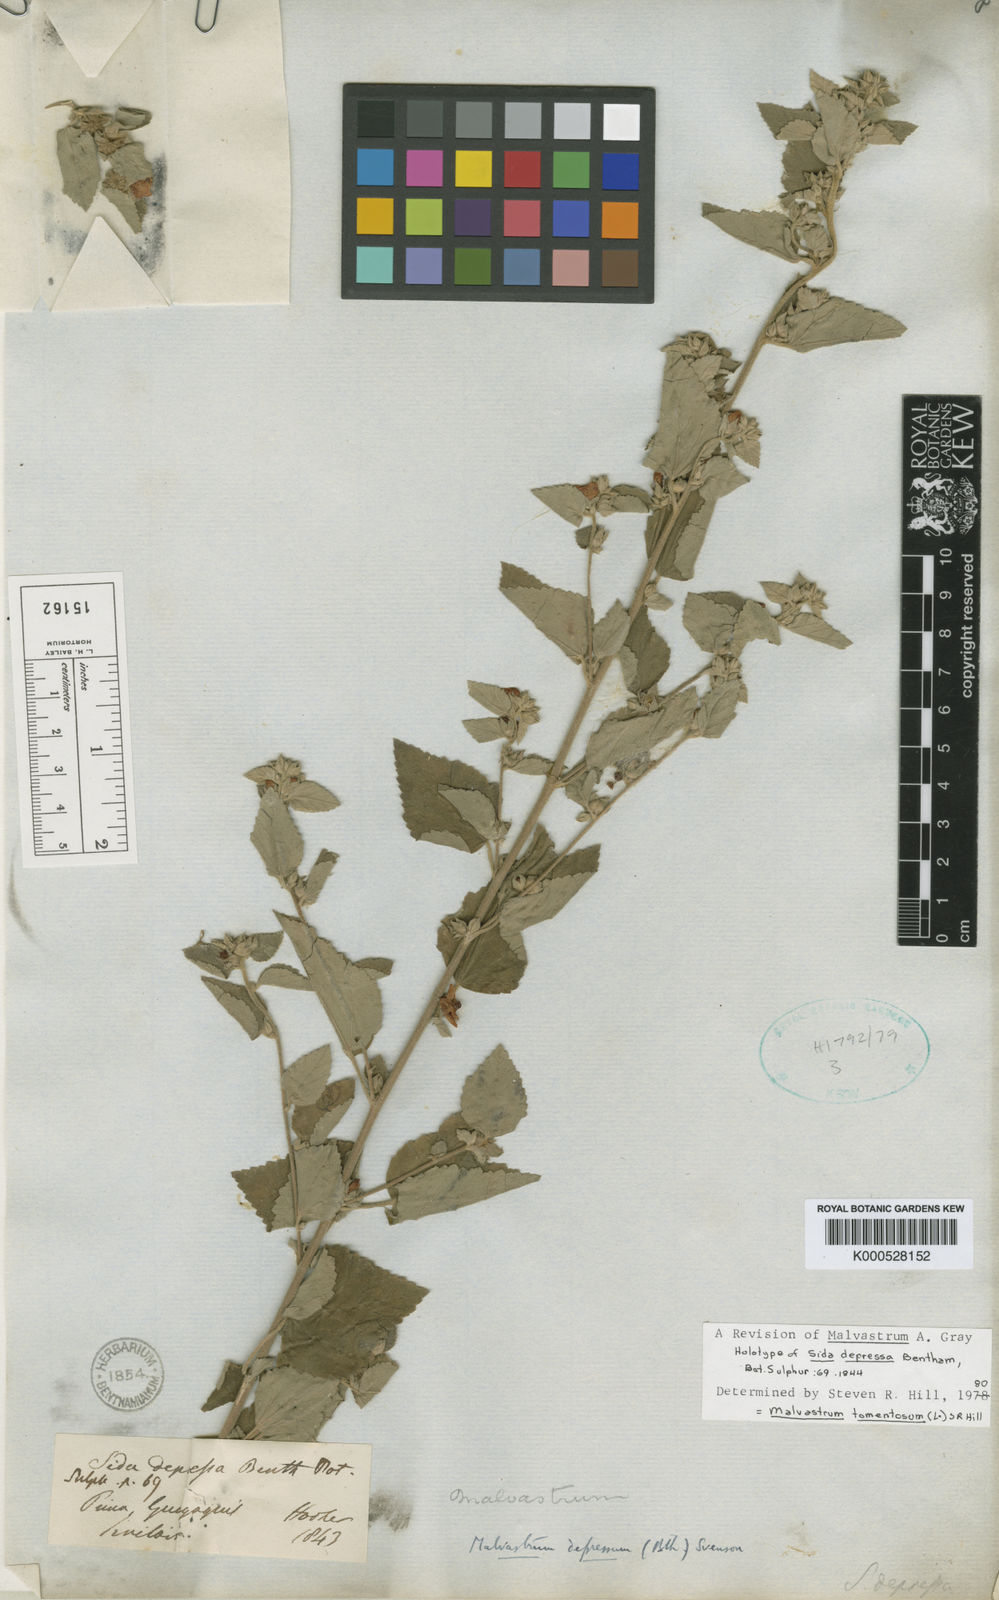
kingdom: Plantae
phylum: Tracheophyta
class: Magnoliopsida
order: Malvales
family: Malvaceae
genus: Malvastrum
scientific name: Malvastrum tomentosum
